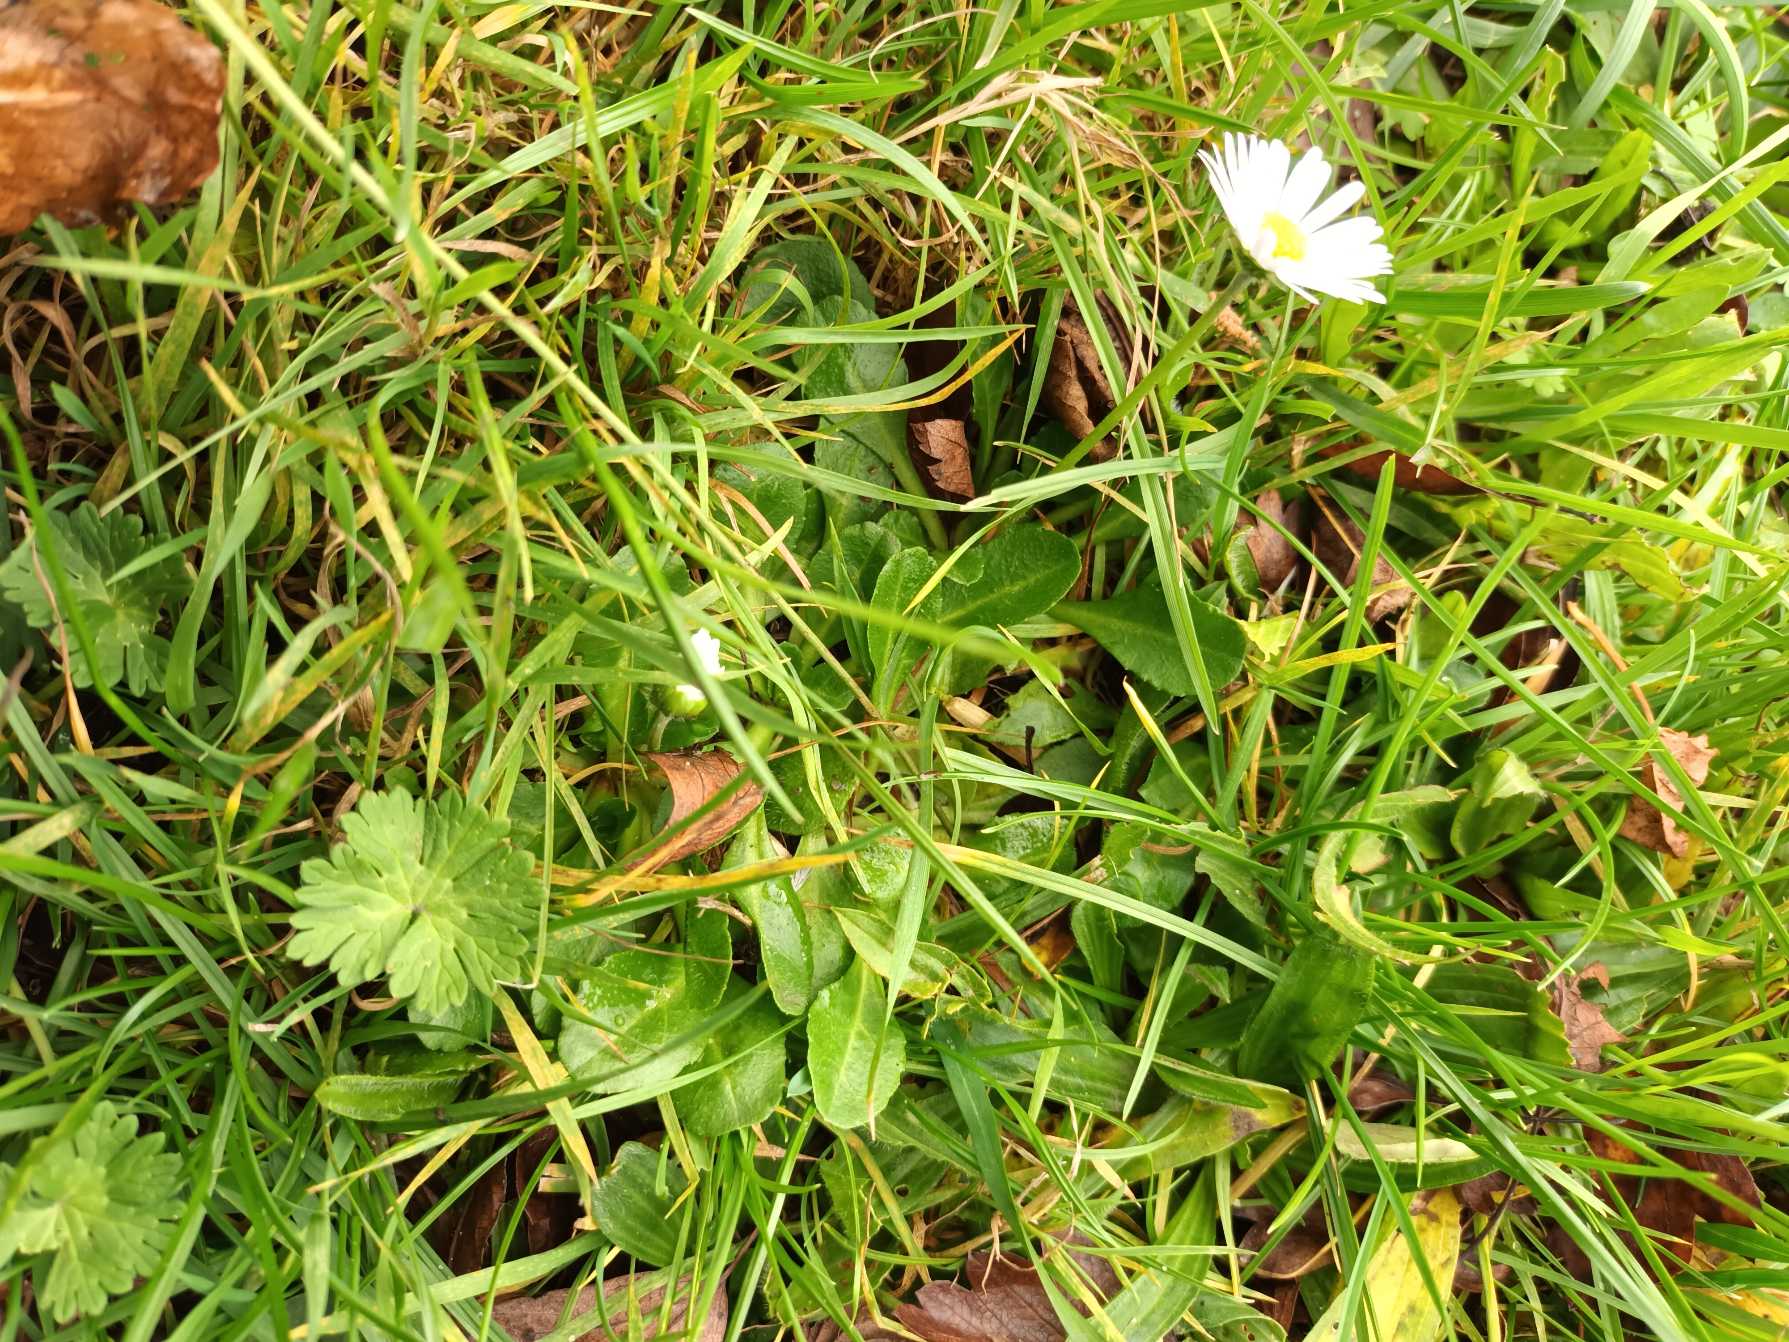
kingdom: Plantae
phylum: Tracheophyta
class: Magnoliopsida
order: Asterales
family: Asteraceae
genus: Bellis
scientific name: Bellis perennis
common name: Tusindfryd
